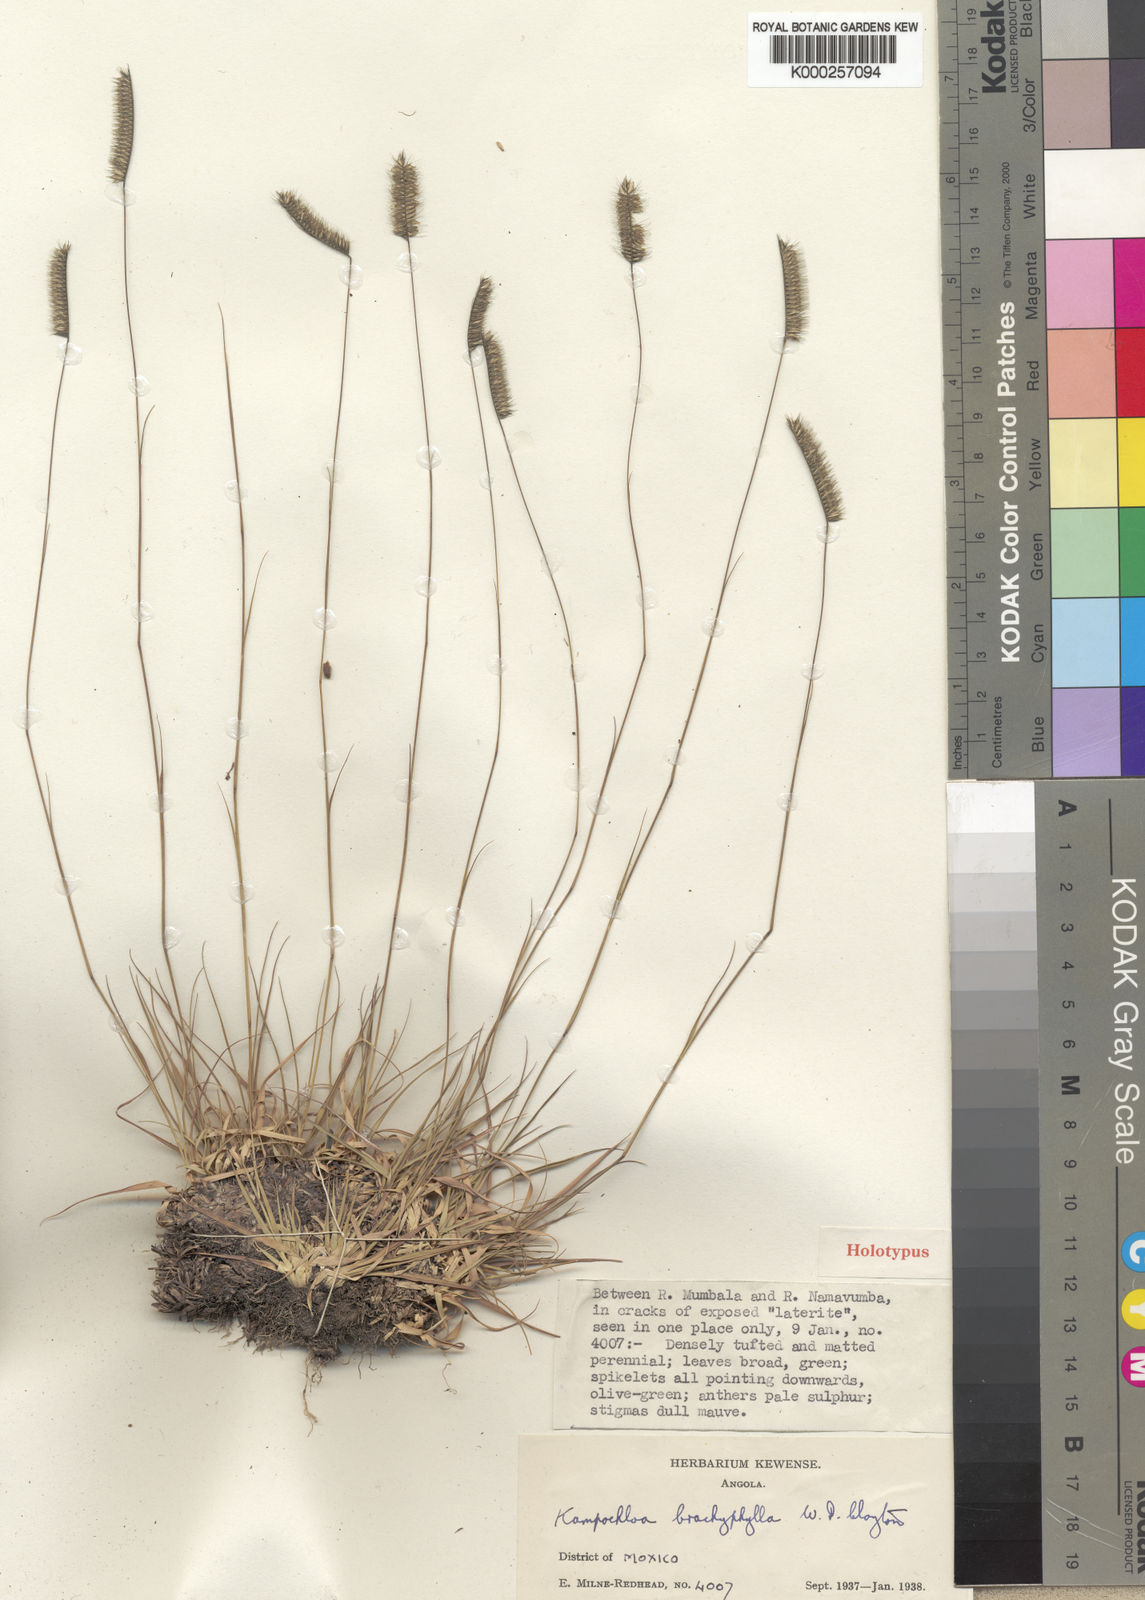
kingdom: Plantae
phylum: Tracheophyta
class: Liliopsida
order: Poales
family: Poaceae
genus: Kampochloa
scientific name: Kampochloa brachyphylla
